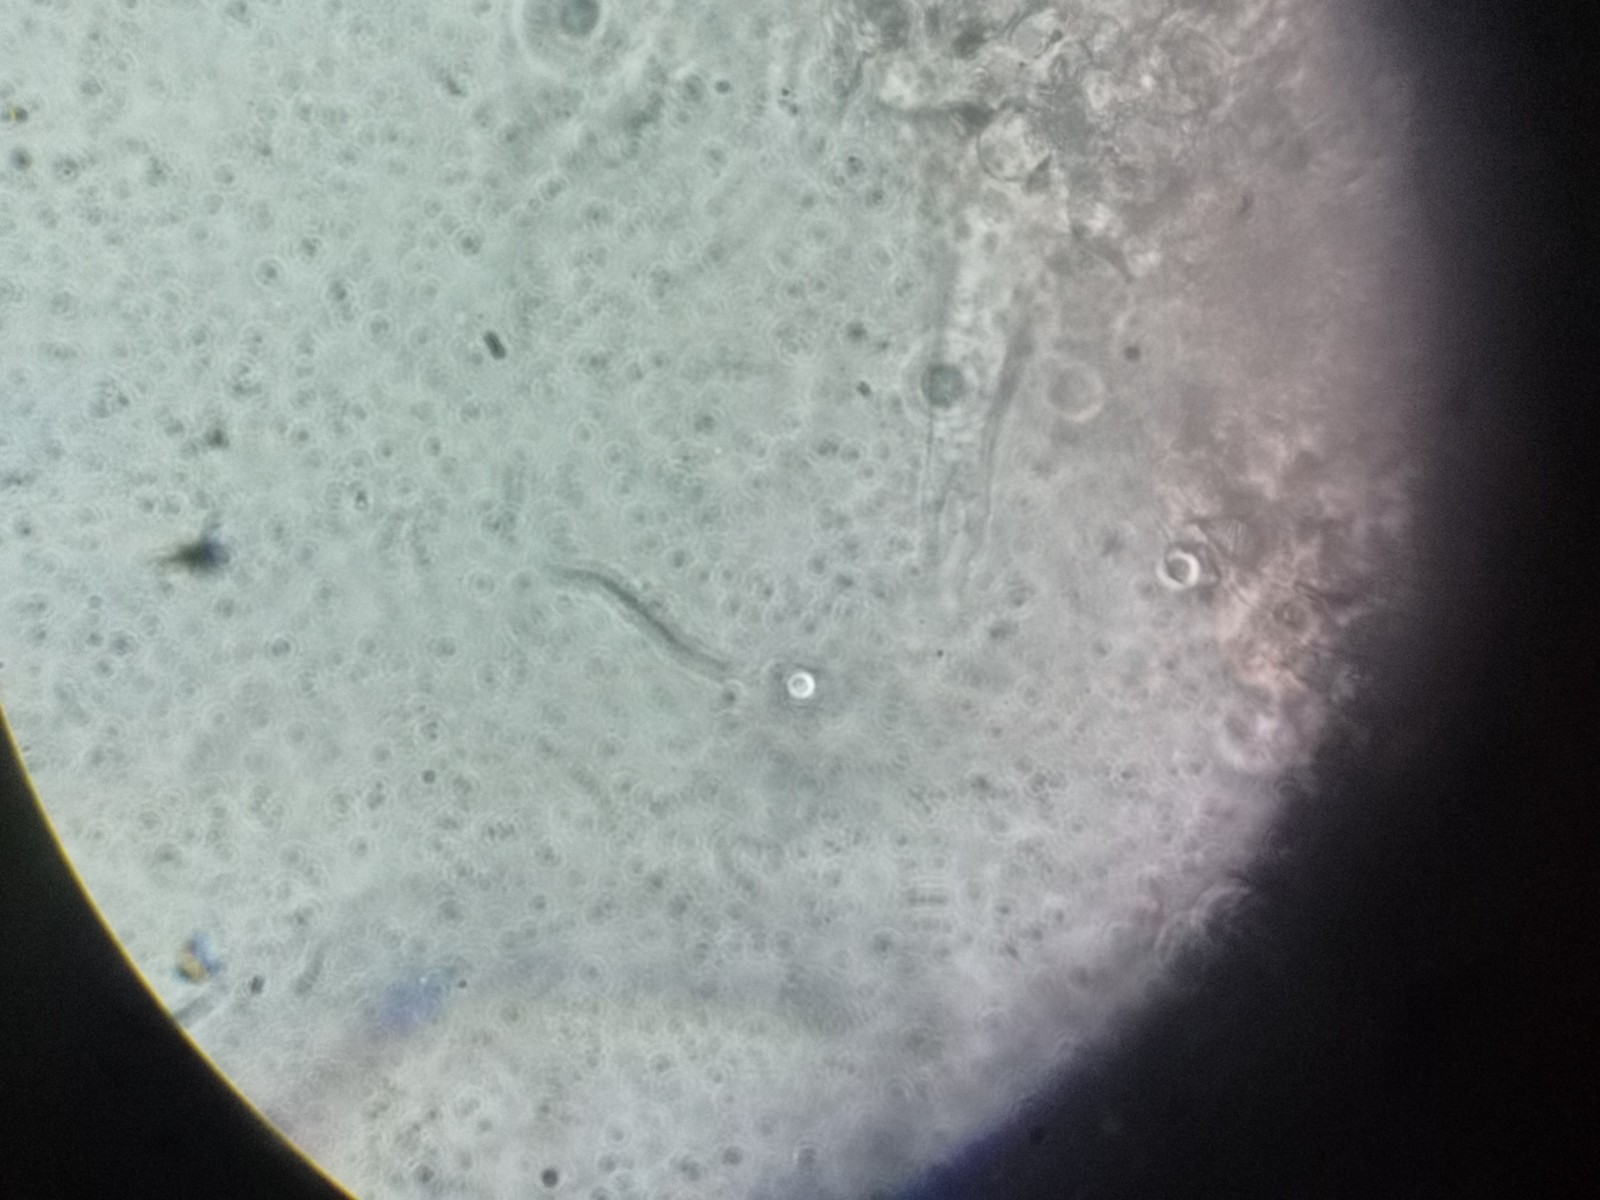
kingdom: Fungi
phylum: Basidiomycota
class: Agaricomycetes
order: Agaricales
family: Mycenaceae
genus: Mycena
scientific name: Mycena erubescens
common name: galde-huesvamp
